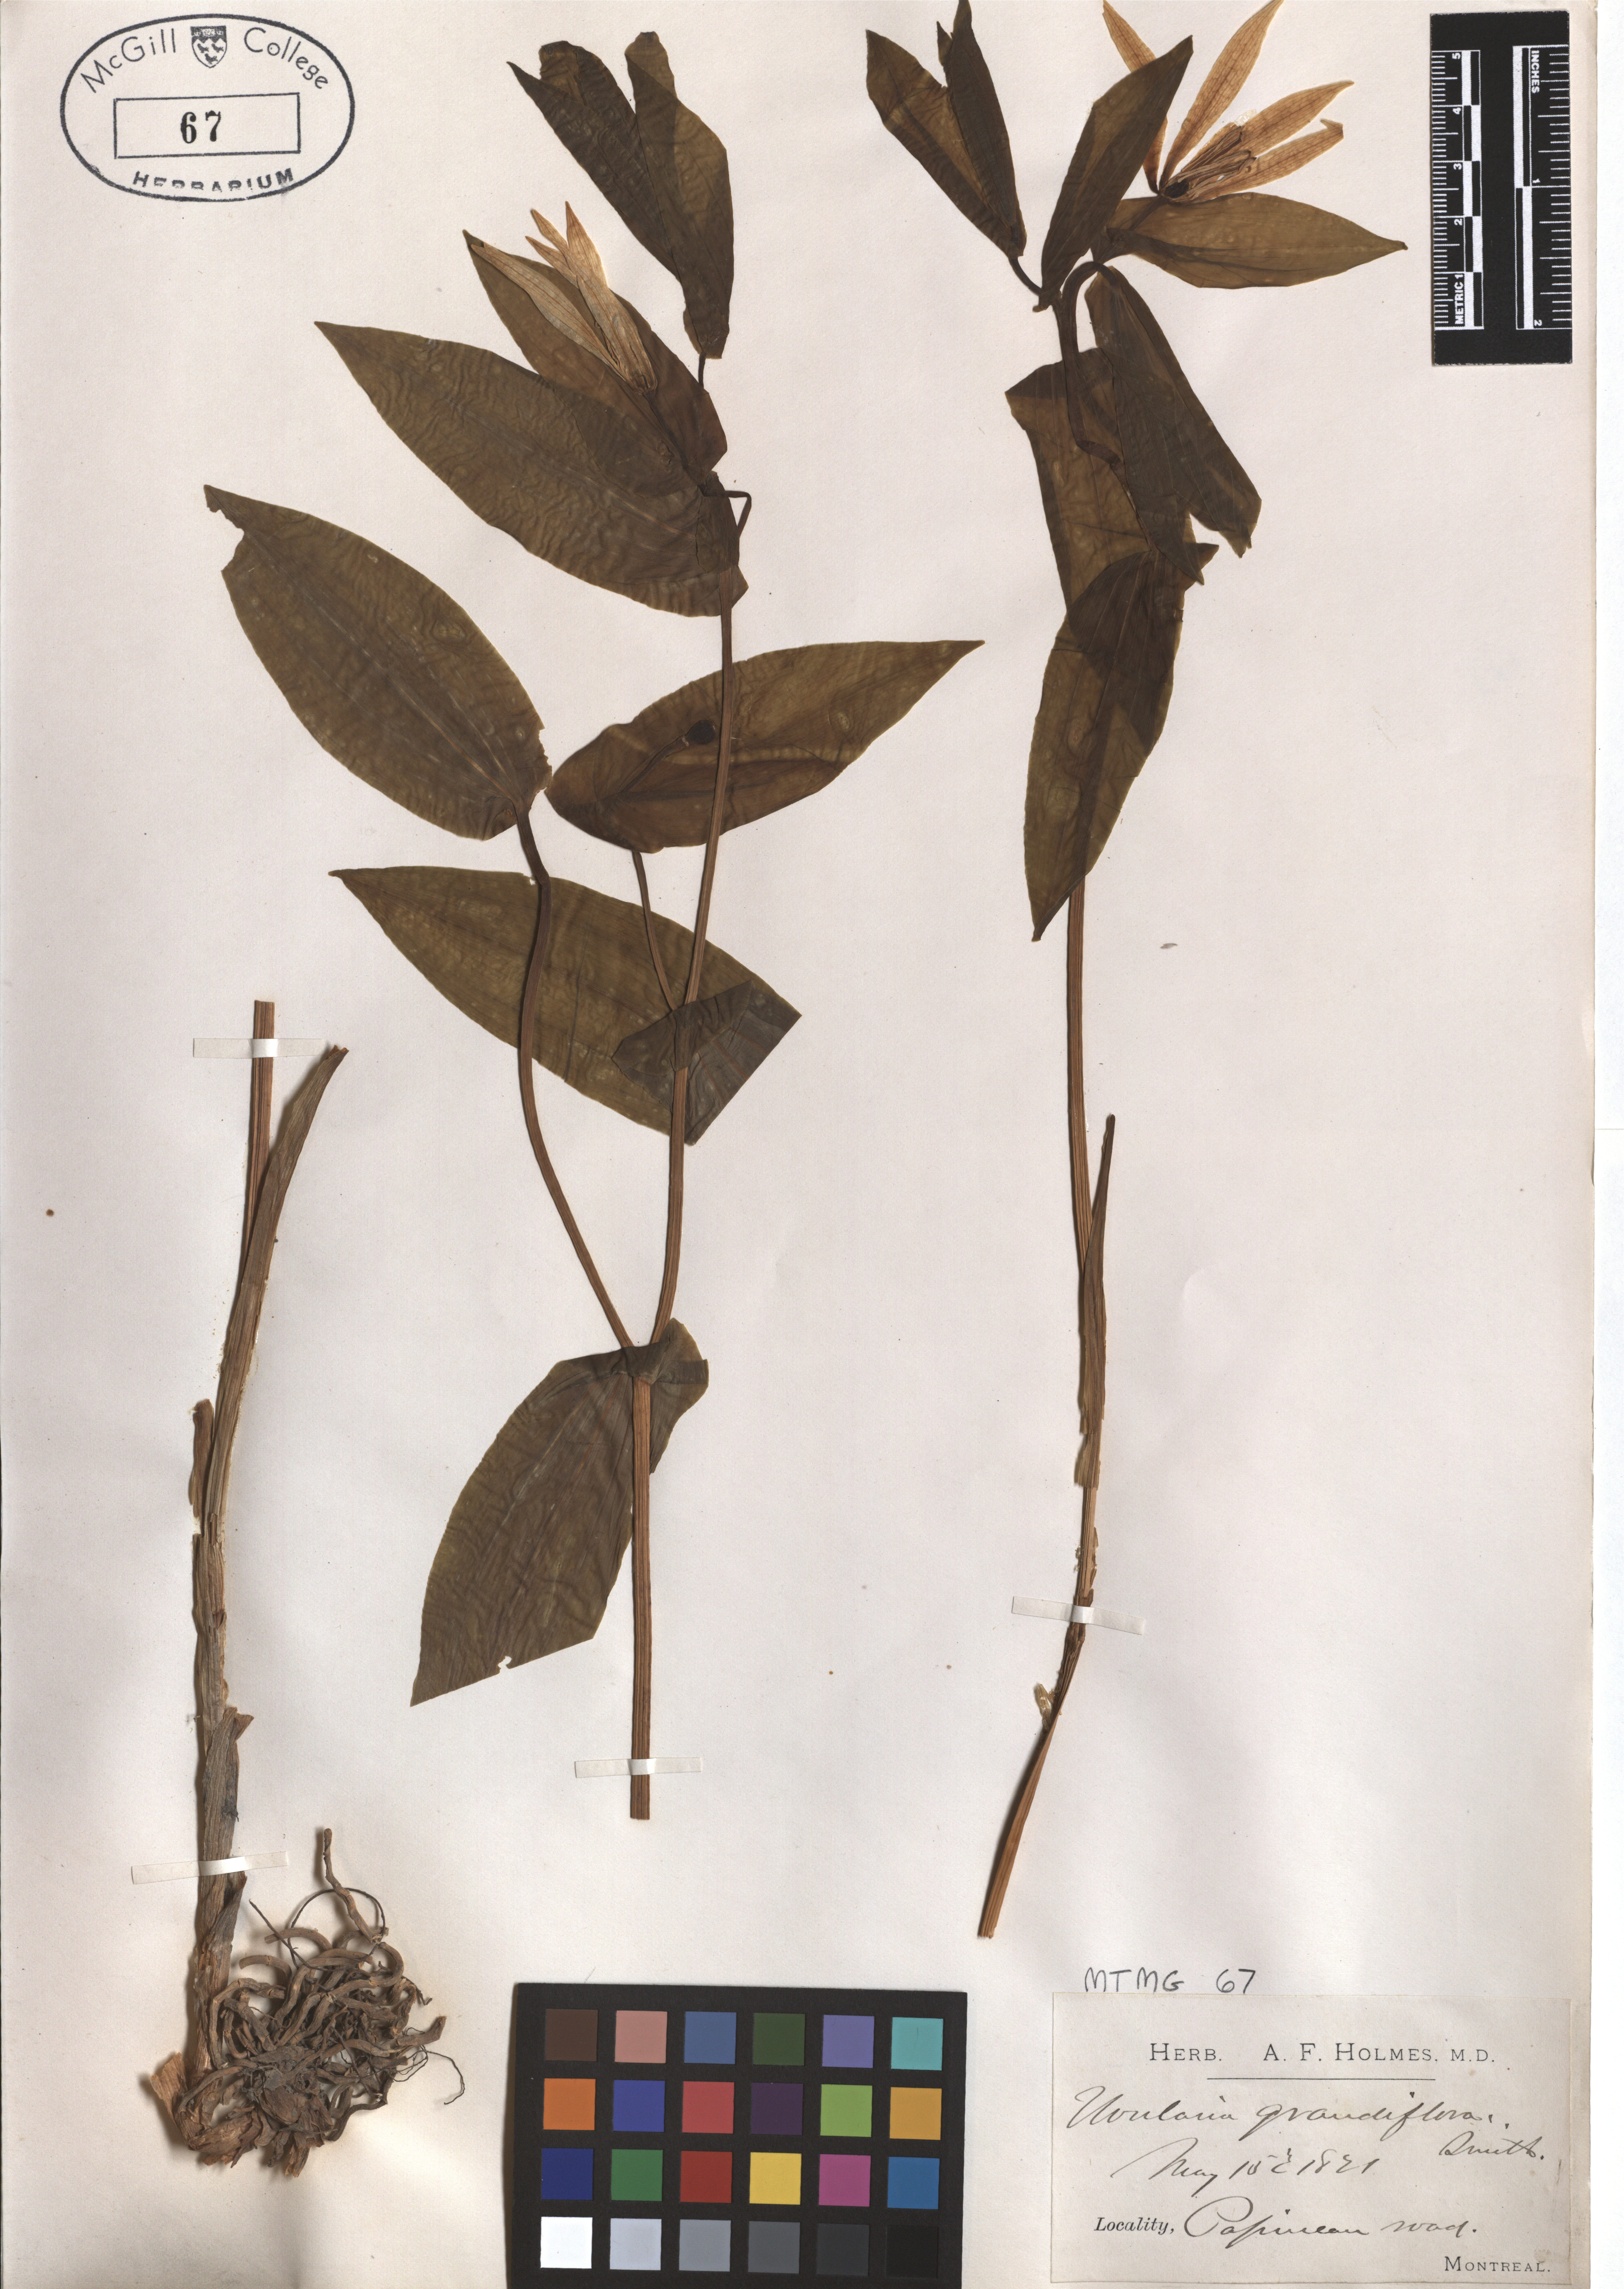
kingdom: Plantae
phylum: Tracheophyta
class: Liliopsida
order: Liliales
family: Colchicaceae
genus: Uvularia
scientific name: Uvularia grandiflora
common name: Bellwort
